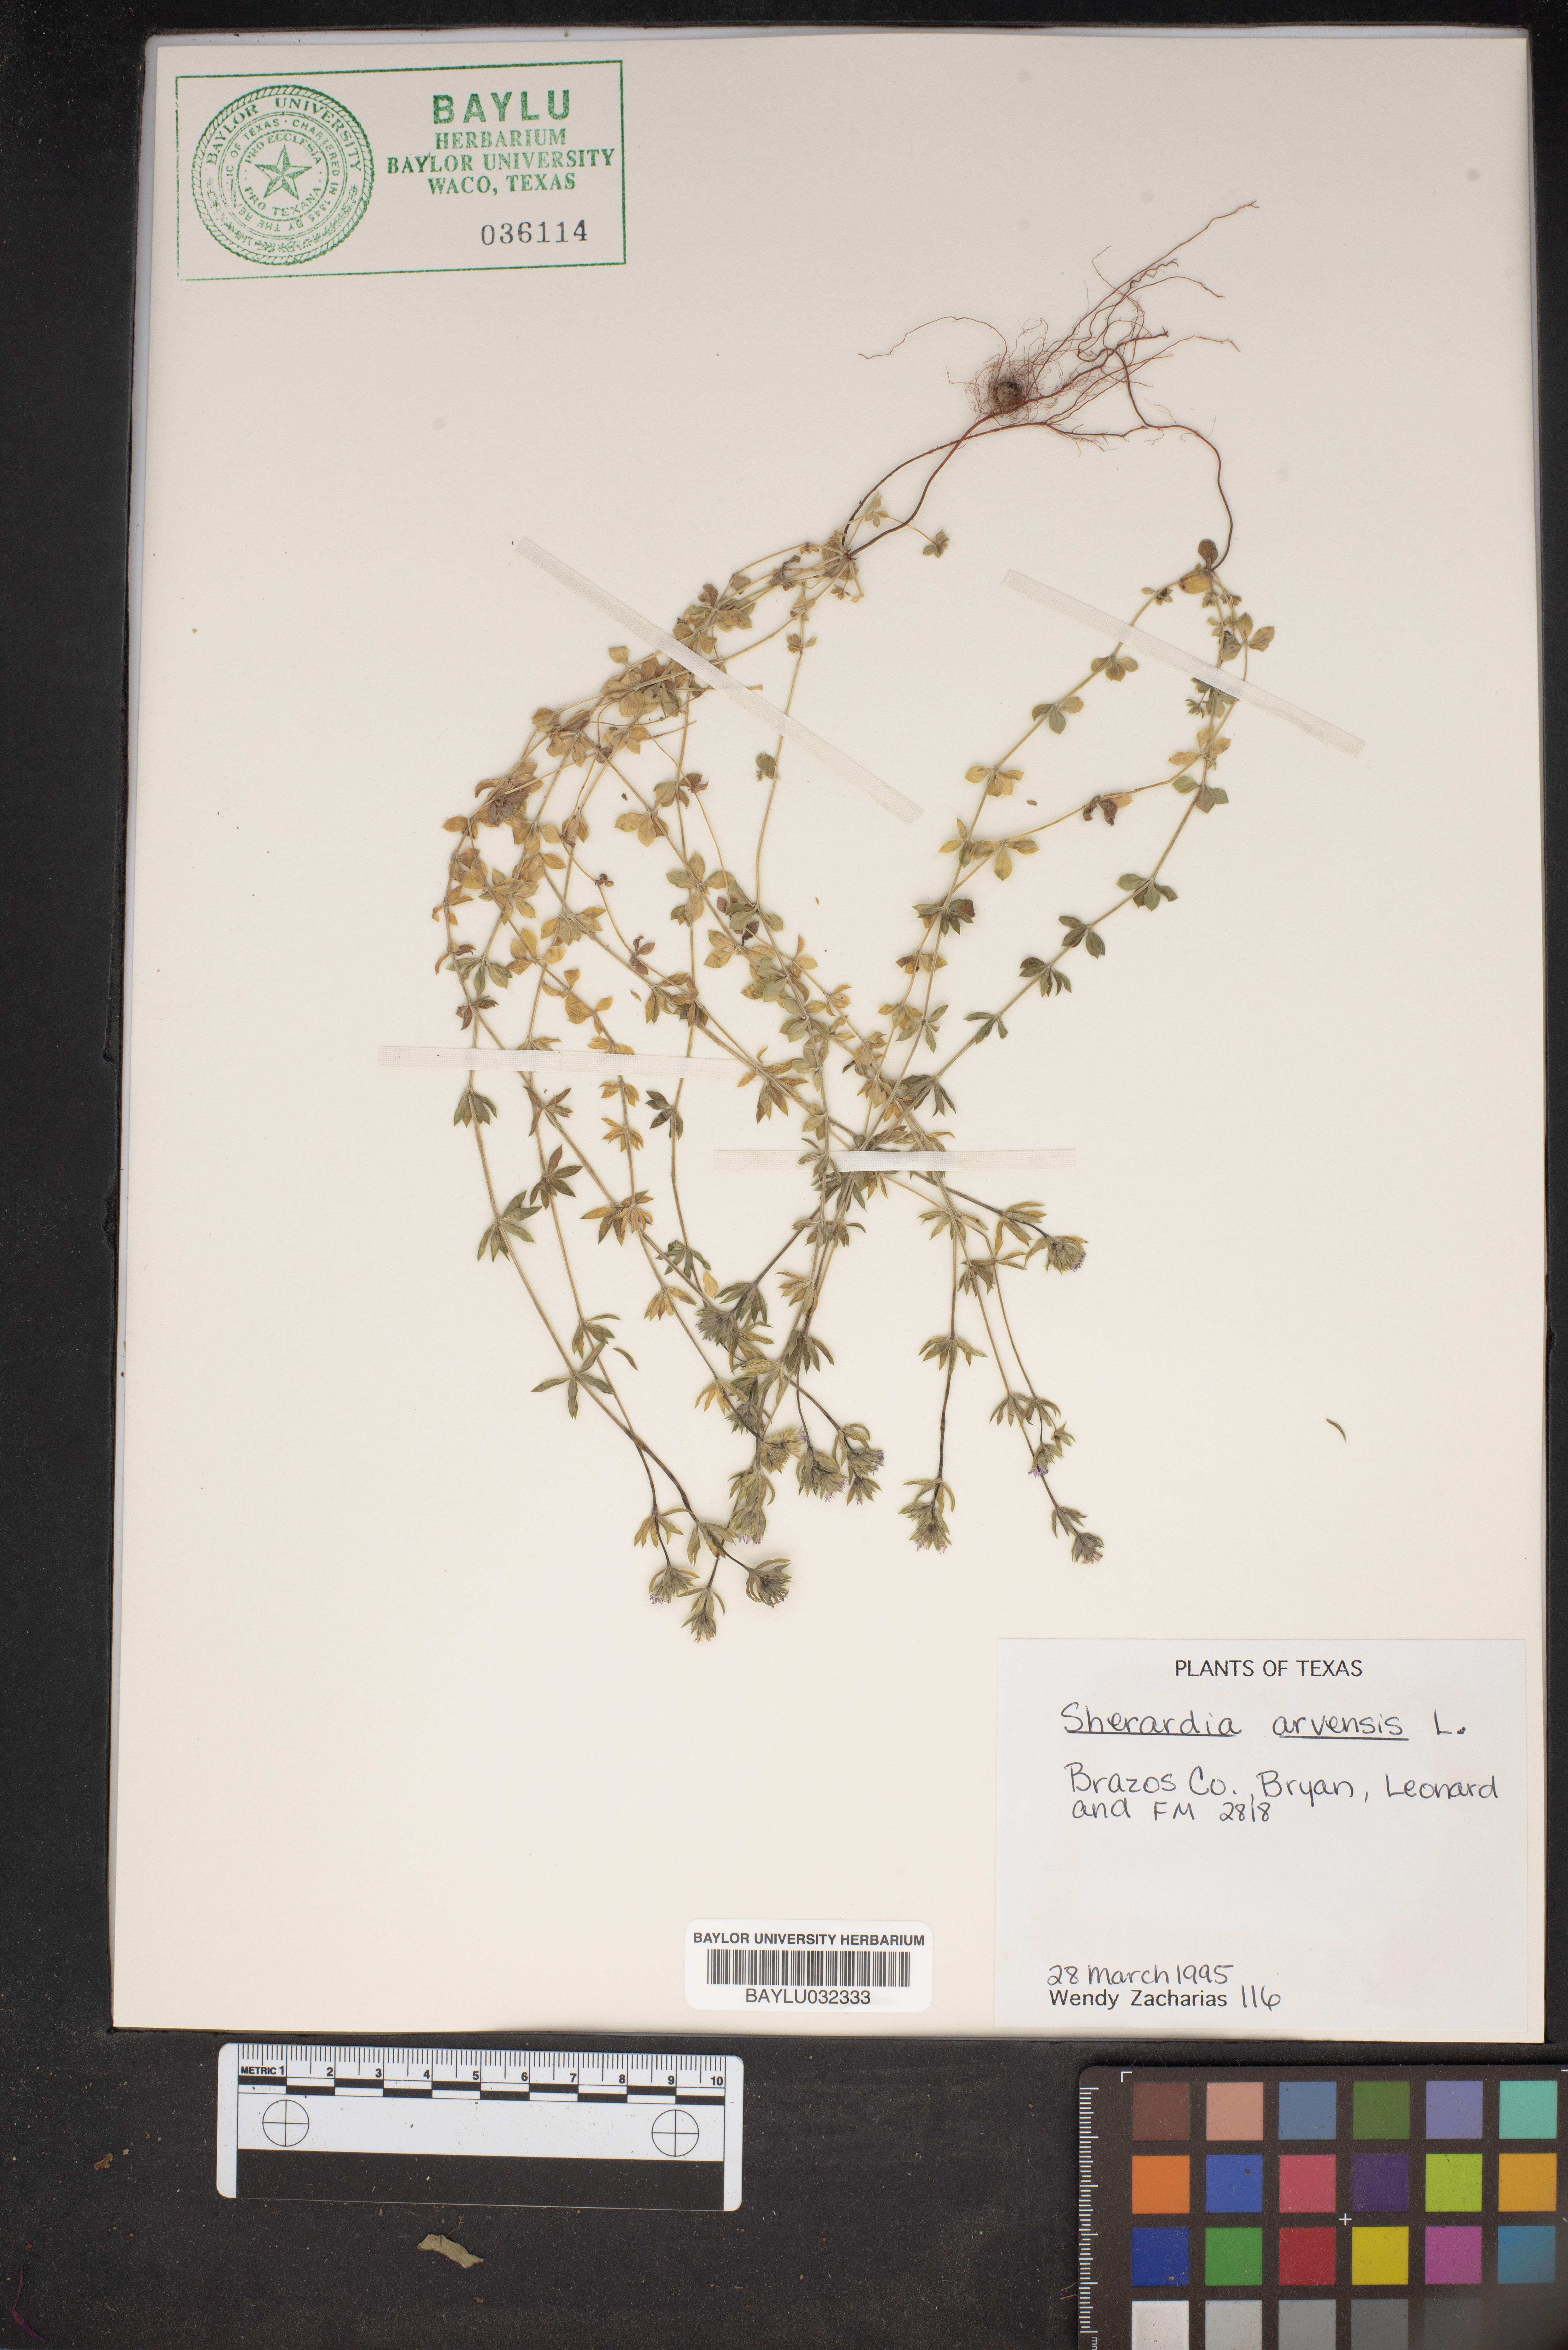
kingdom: Plantae
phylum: Tracheophyta
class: Magnoliopsida
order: Gentianales
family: Rubiaceae
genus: Sherardia
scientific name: Sherardia arvensis
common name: Field madder
